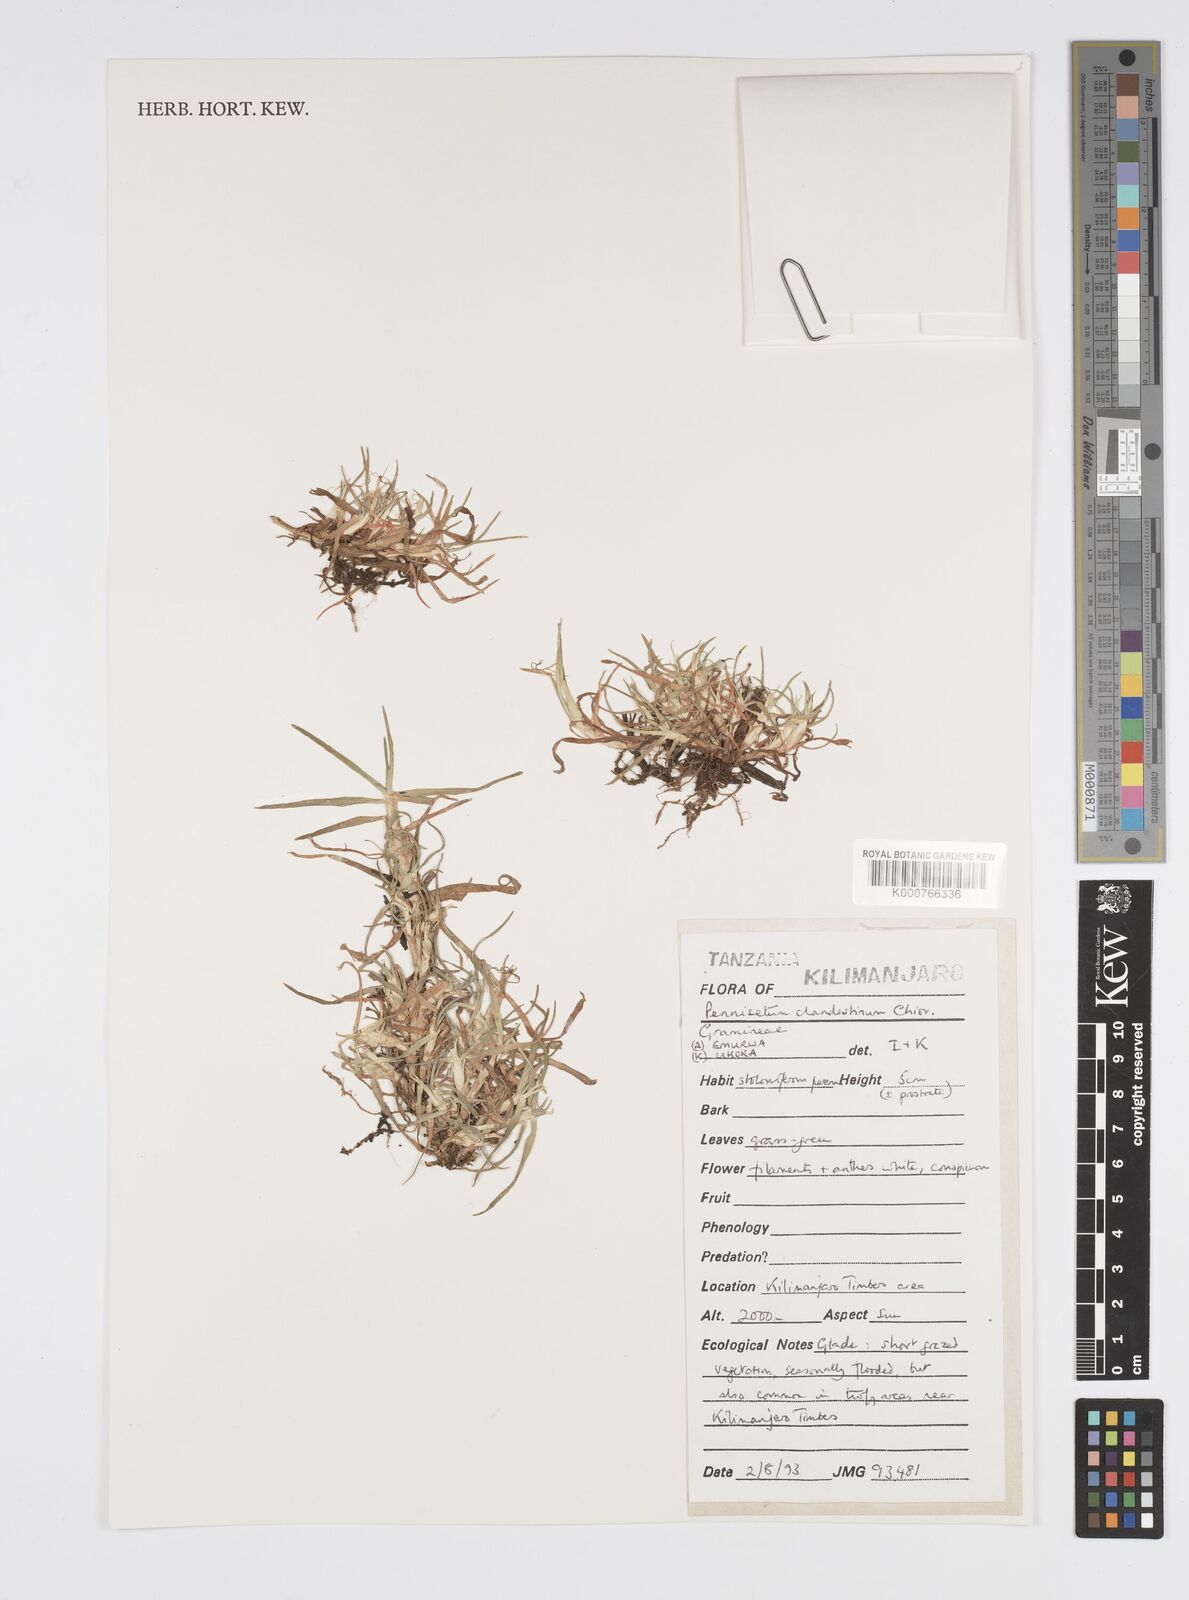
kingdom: Plantae
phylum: Tracheophyta
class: Liliopsida
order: Poales
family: Poaceae
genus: Cenchrus
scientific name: Cenchrus clandestinus
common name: Kikuyugrass
